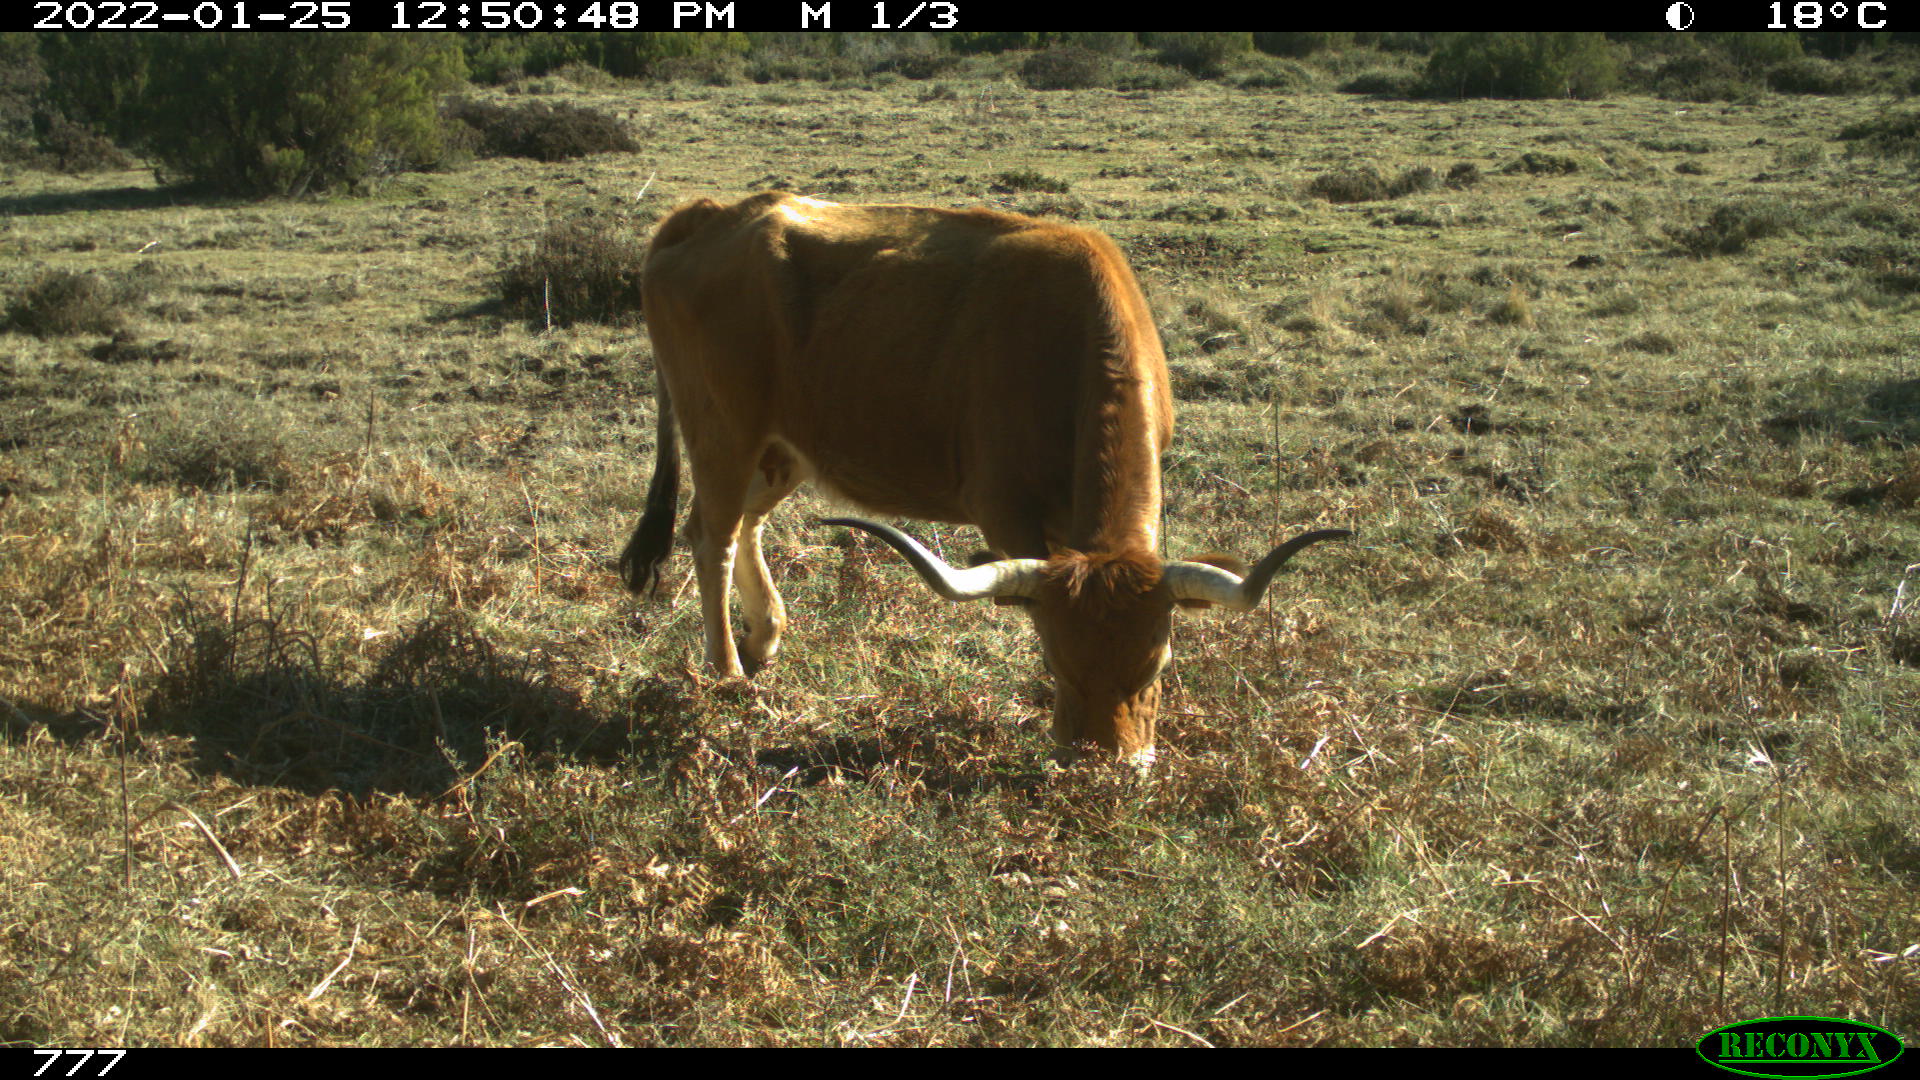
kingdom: Animalia
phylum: Chordata
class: Mammalia
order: Artiodactyla
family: Bovidae
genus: Bos
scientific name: Bos taurus
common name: Domesticated cattle
